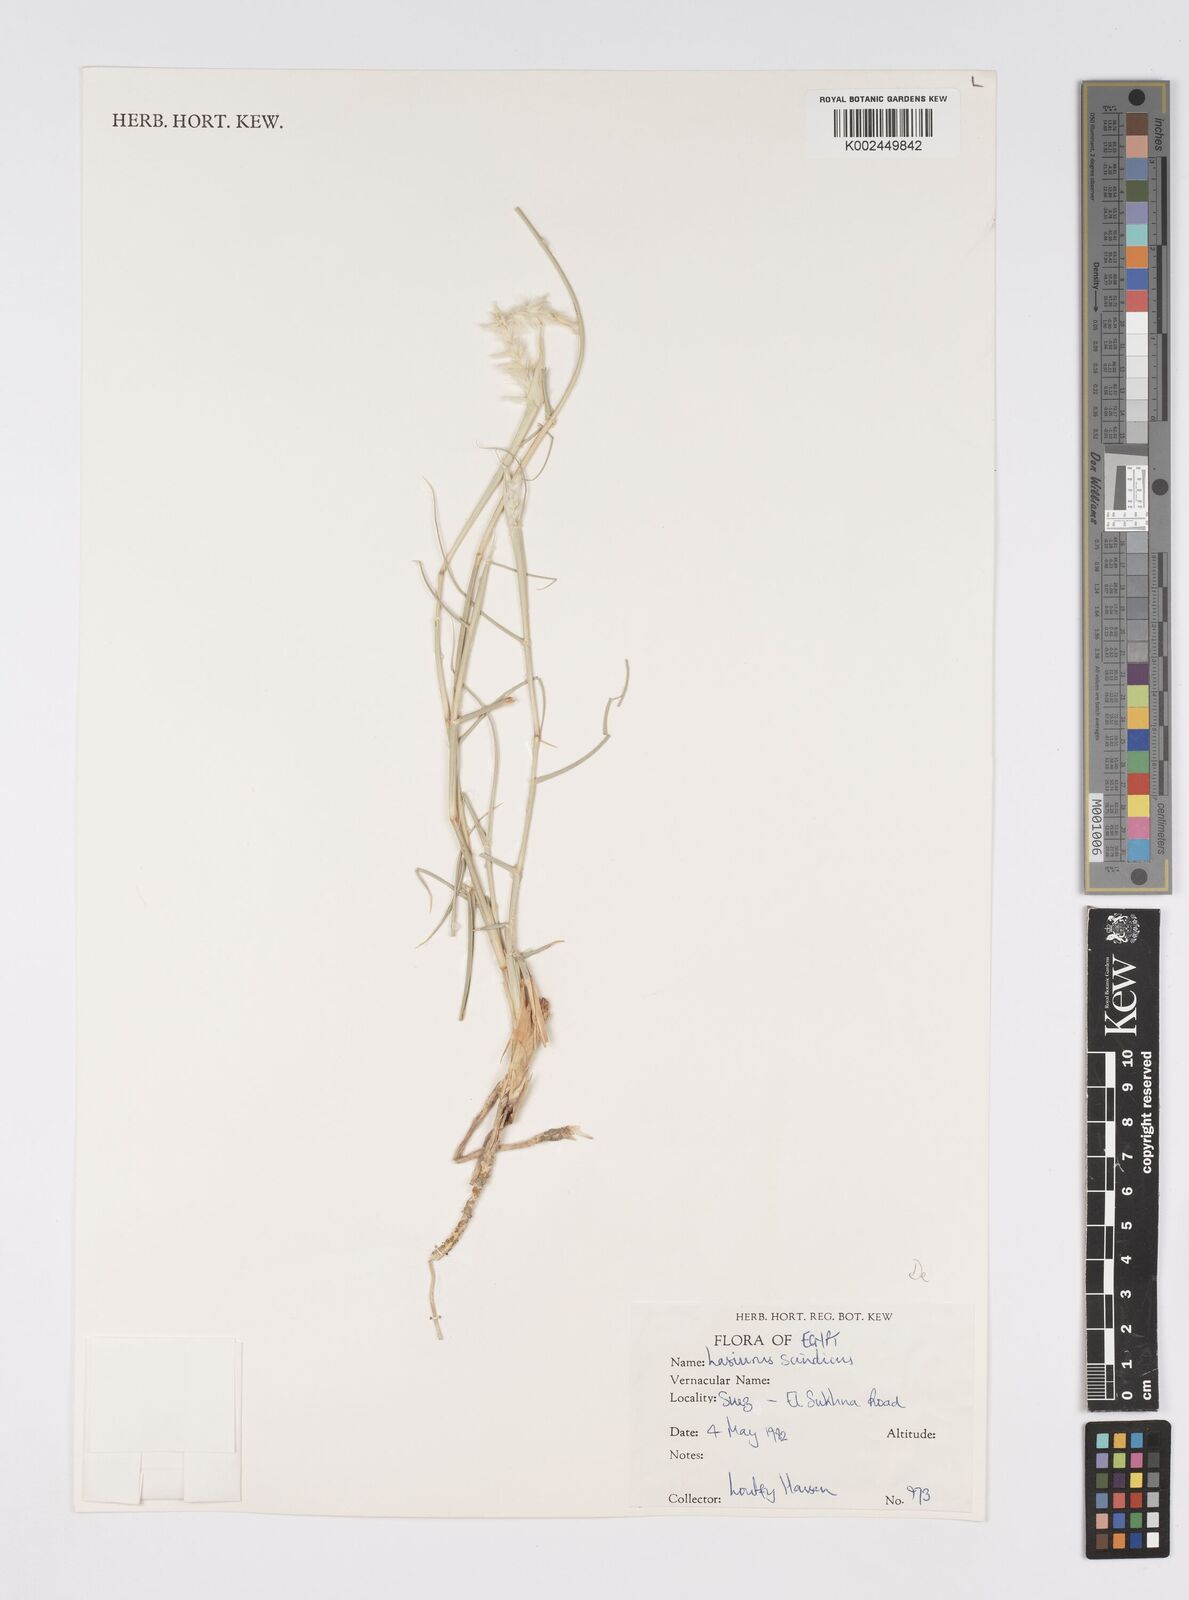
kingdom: Plantae
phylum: Tracheophyta
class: Liliopsida
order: Poales
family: Poaceae
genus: Lasiurus
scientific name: Lasiurus scindicus
